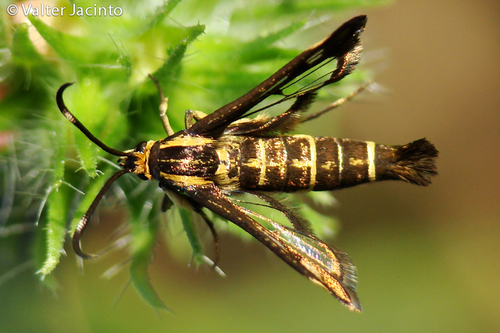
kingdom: Animalia
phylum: Arthropoda
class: Insecta
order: Lepidoptera
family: Sesiidae
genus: Pyropteron
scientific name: Pyropteron meriaeformis
